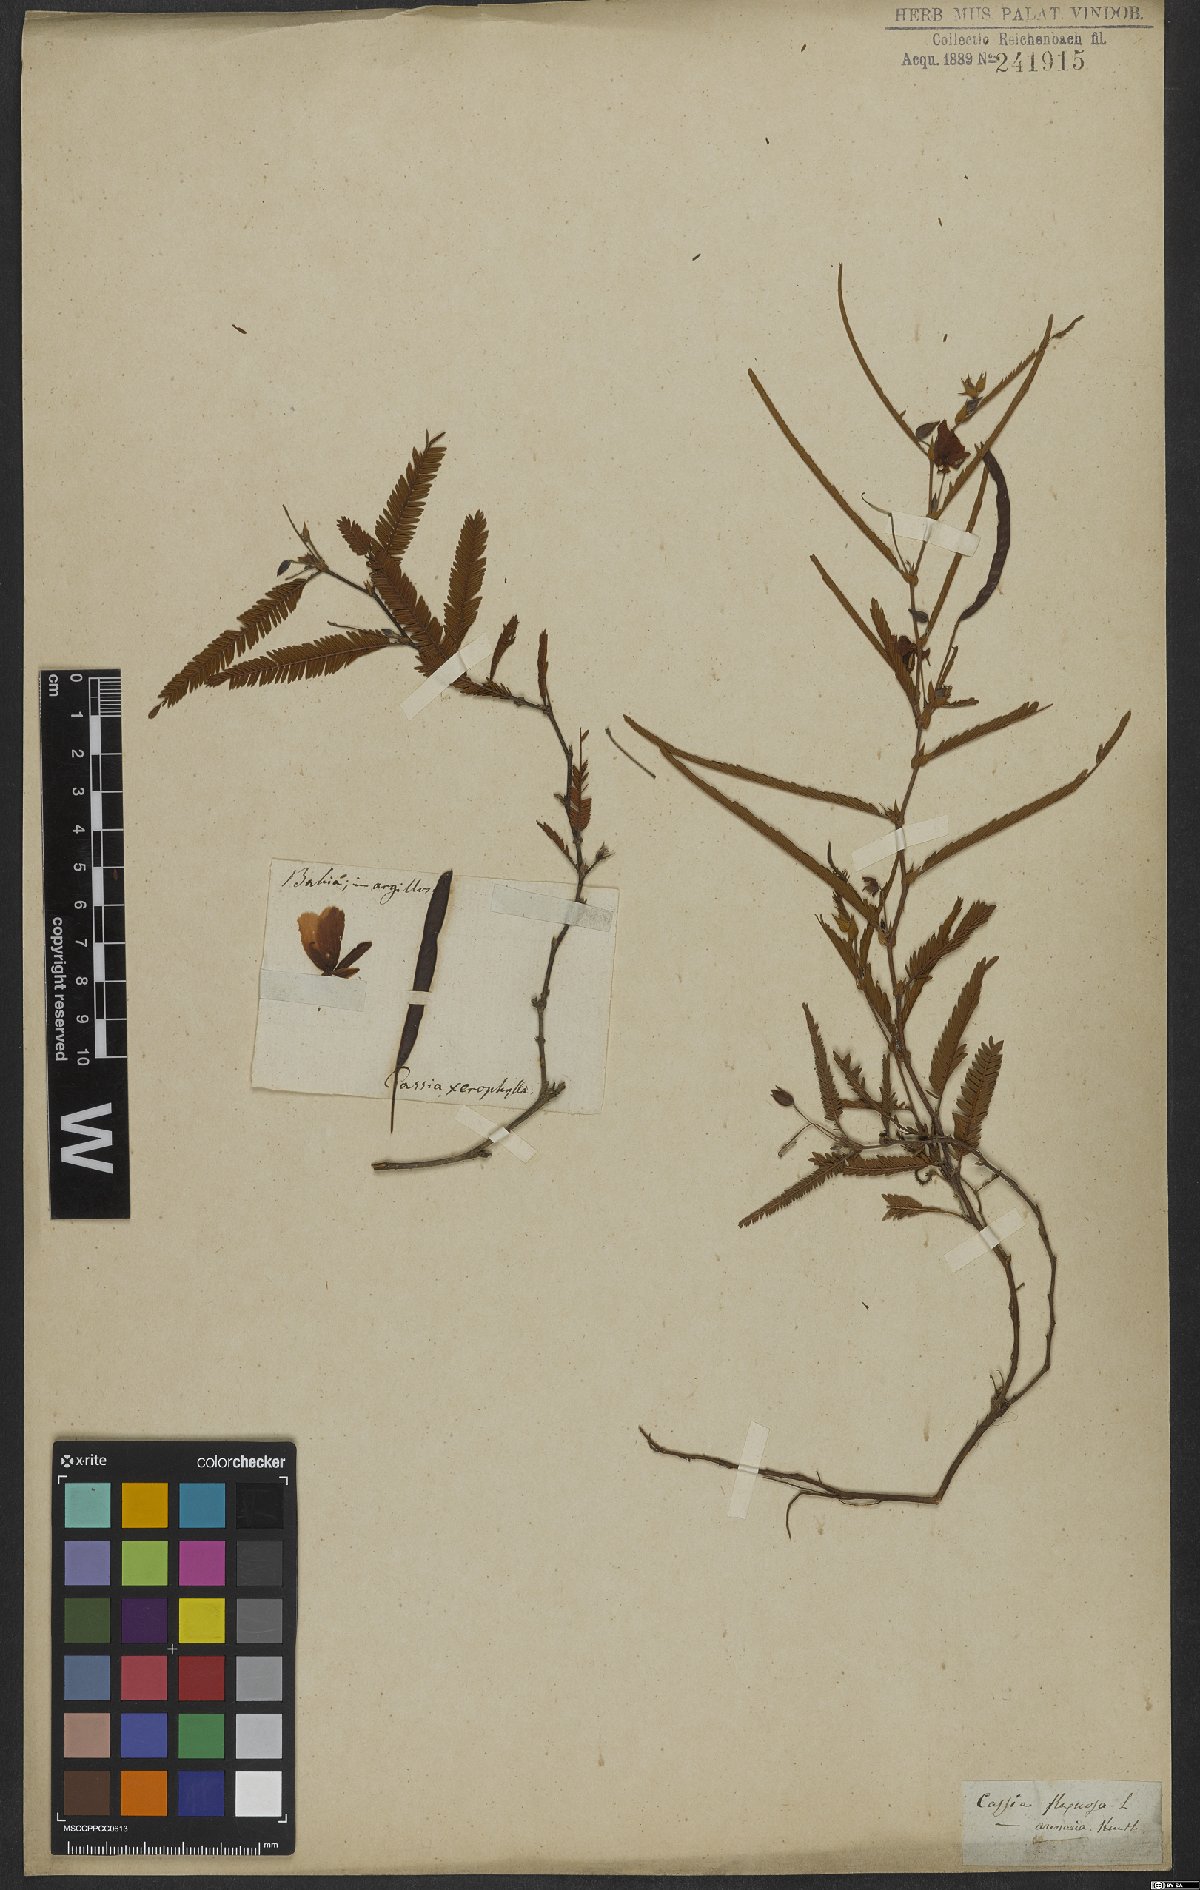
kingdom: Plantae
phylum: Tracheophyta
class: Magnoliopsida
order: Fabales
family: Fabaceae
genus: Chamaecrista
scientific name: Chamaecrista flexuosa
